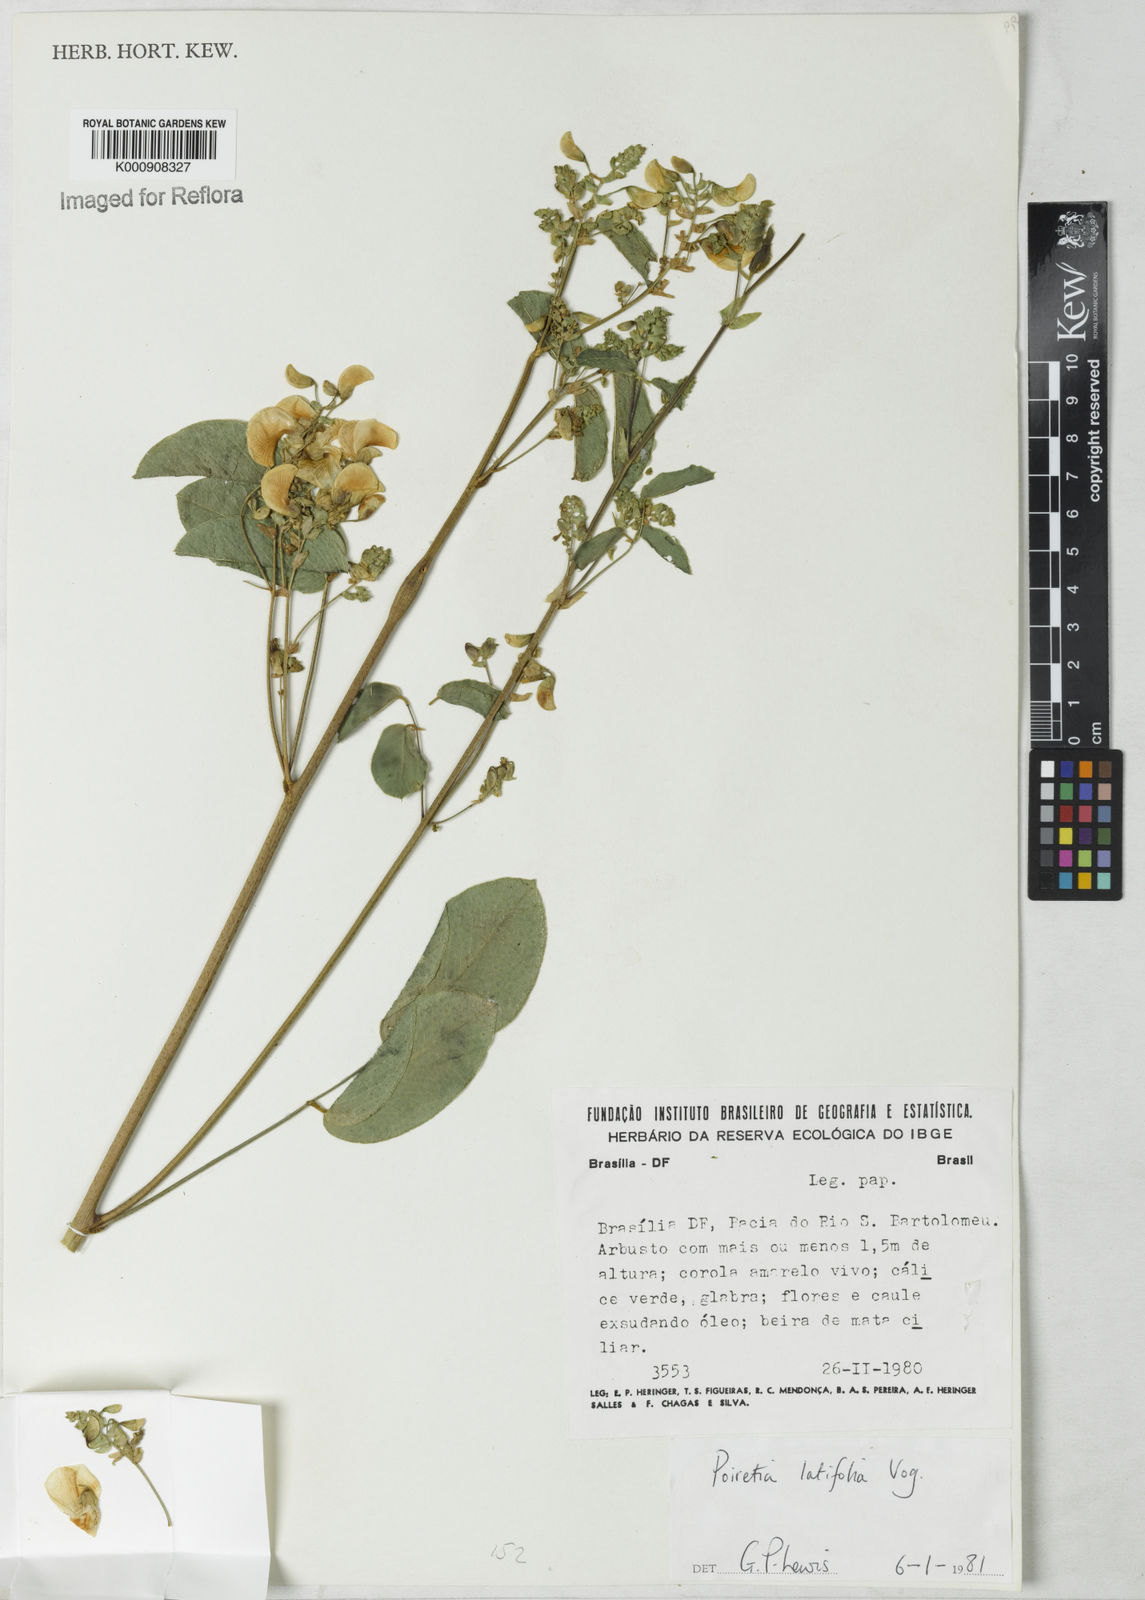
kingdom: Plantae
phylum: Tracheophyta
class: Magnoliopsida
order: Fabales
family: Fabaceae
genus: Poiretia
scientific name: Poiretia latifolia
